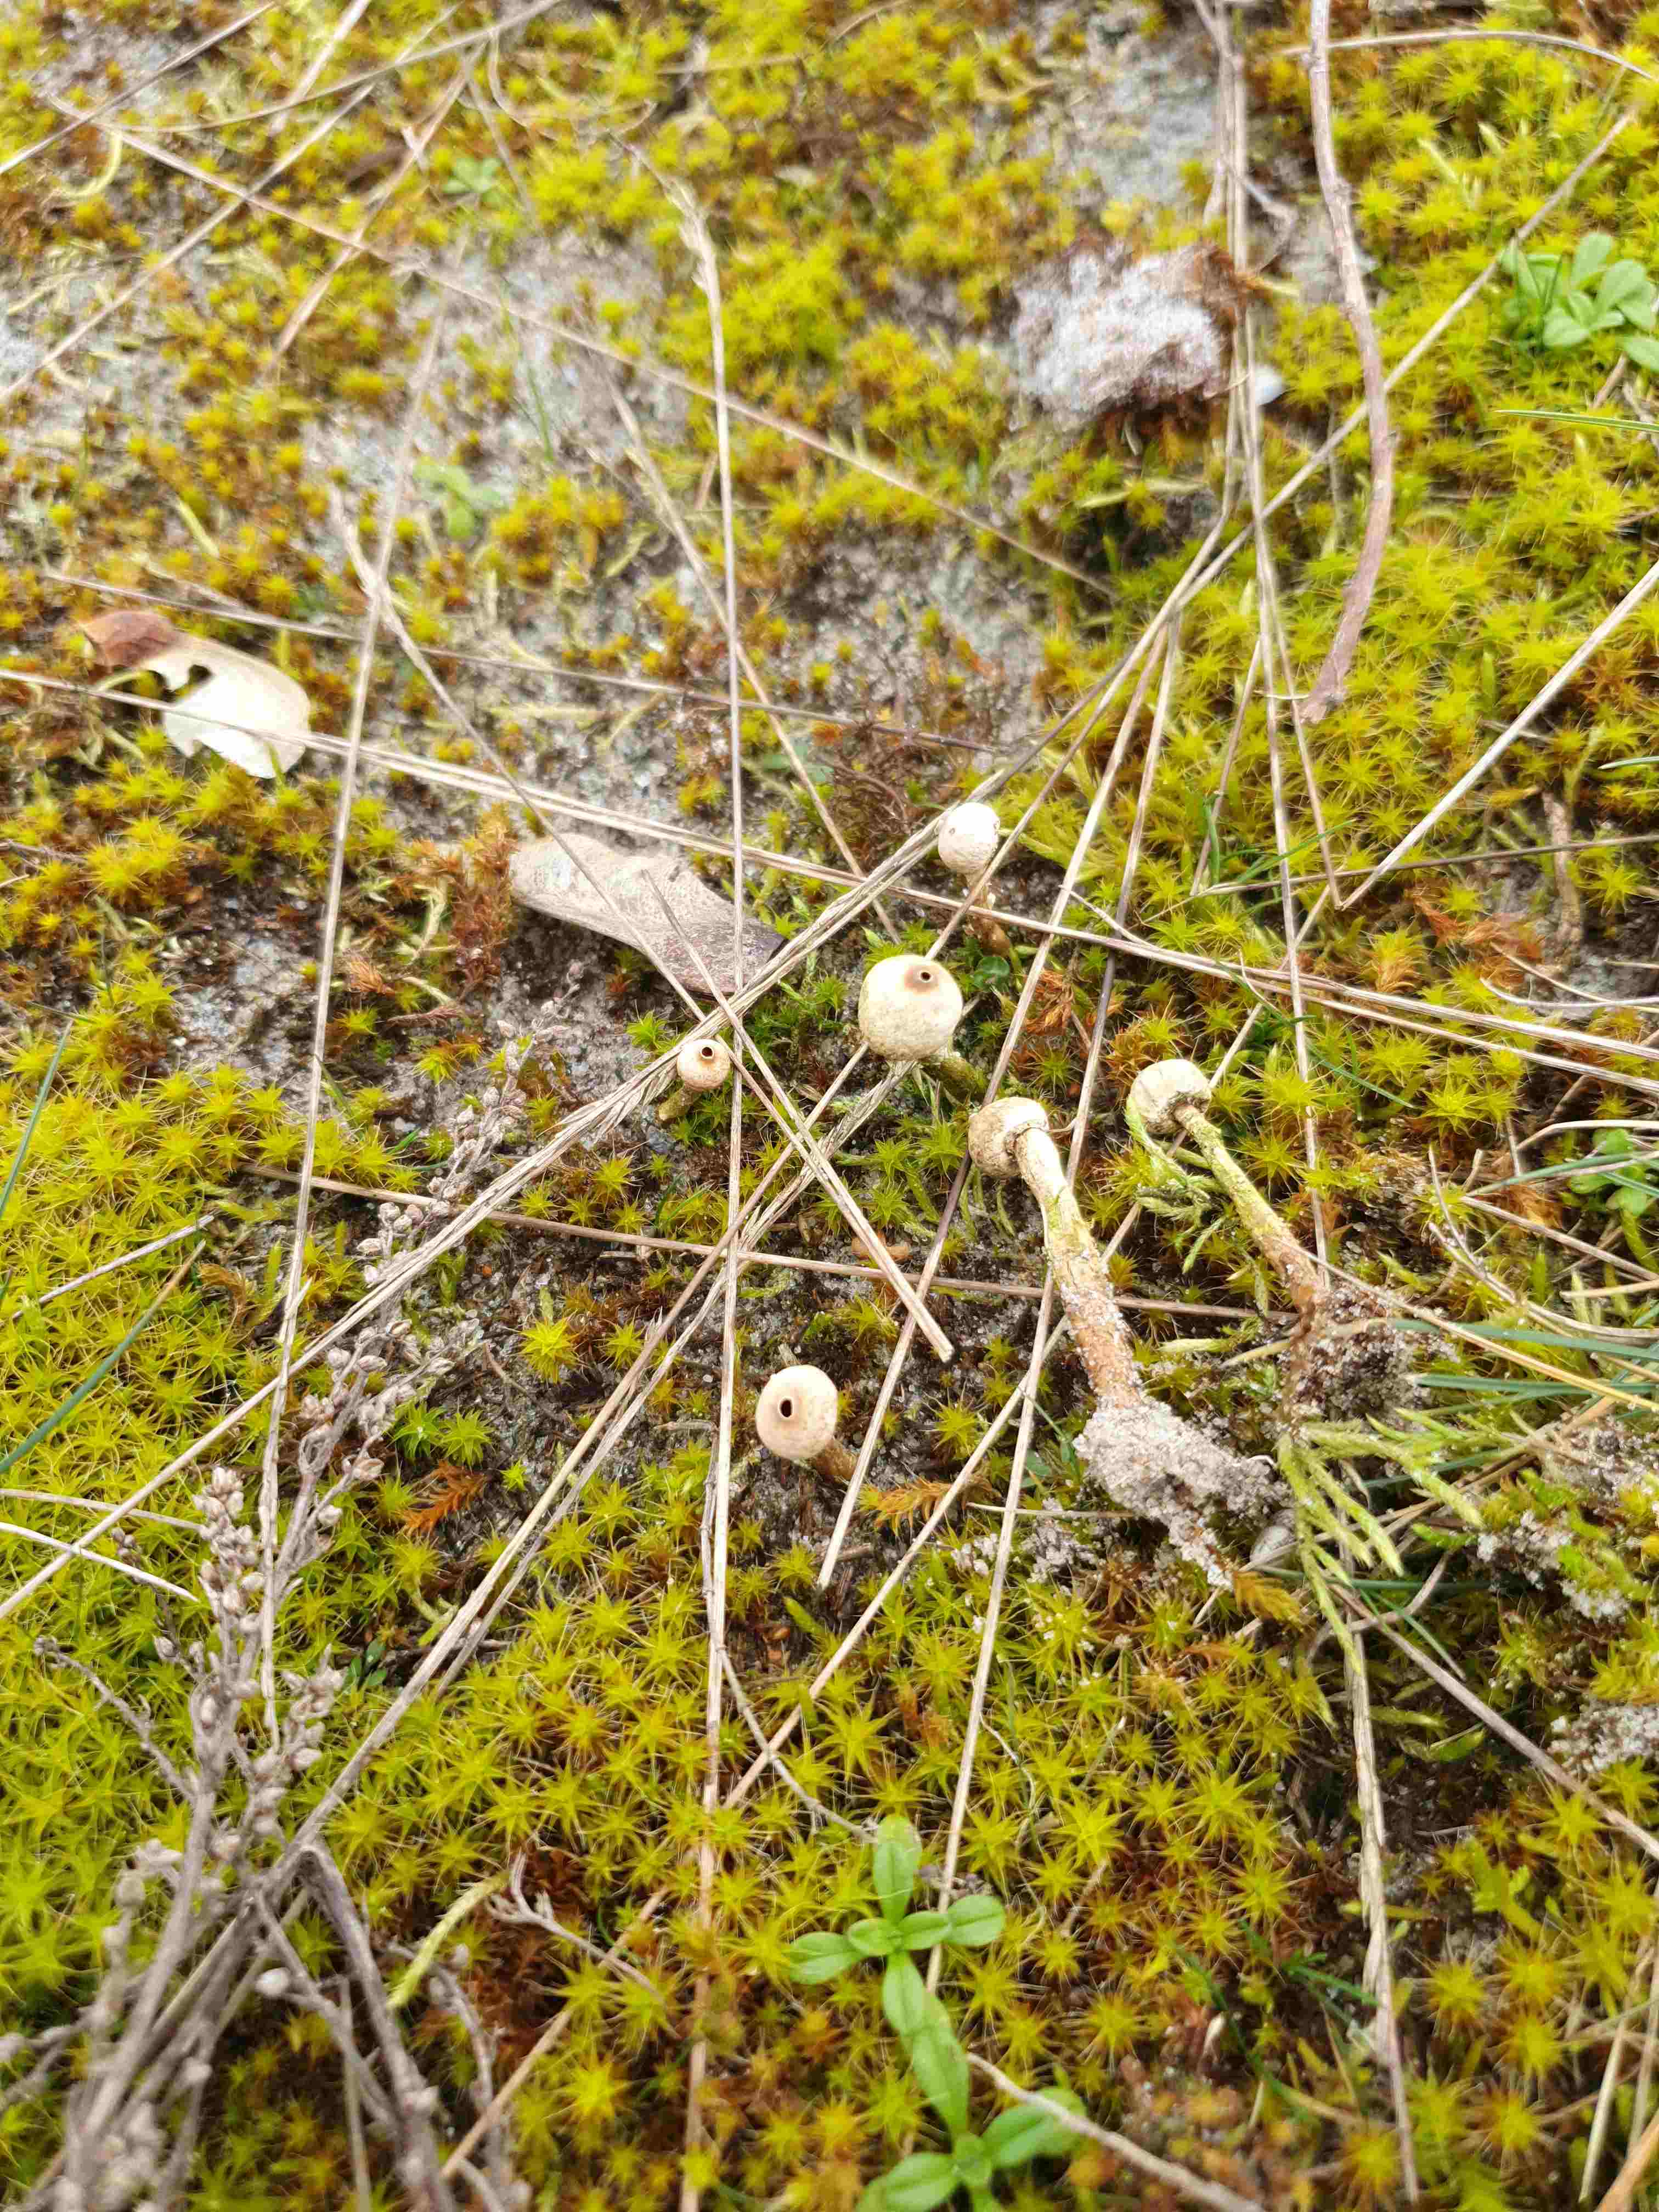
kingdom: Fungi
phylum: Basidiomycota
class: Agaricomycetes
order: Agaricales
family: Agaricaceae
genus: Tulostoma
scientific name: Tulostoma brumale
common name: vinter-stilkbovist
